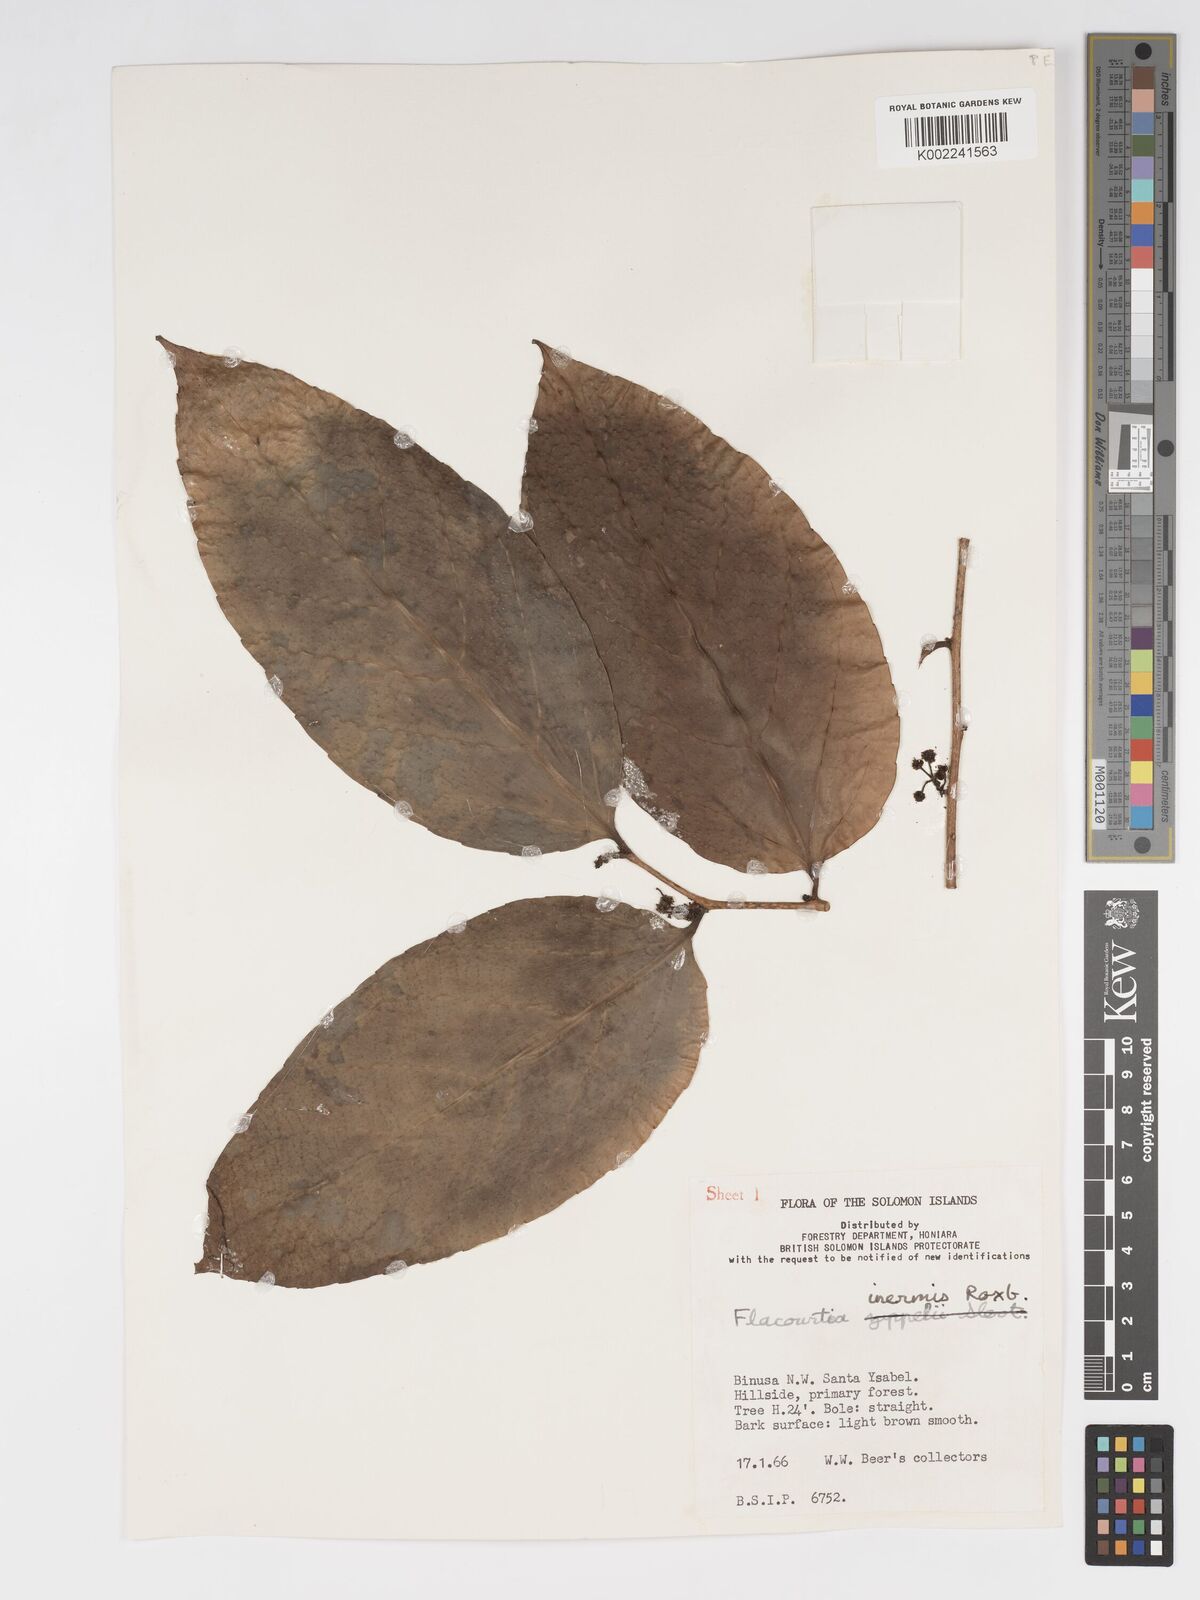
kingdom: Plantae
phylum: Tracheophyta
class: Magnoliopsida
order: Malpighiales
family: Salicaceae
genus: Flacourtia
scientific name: Flacourtia inermis
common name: Plum-of-martinique
